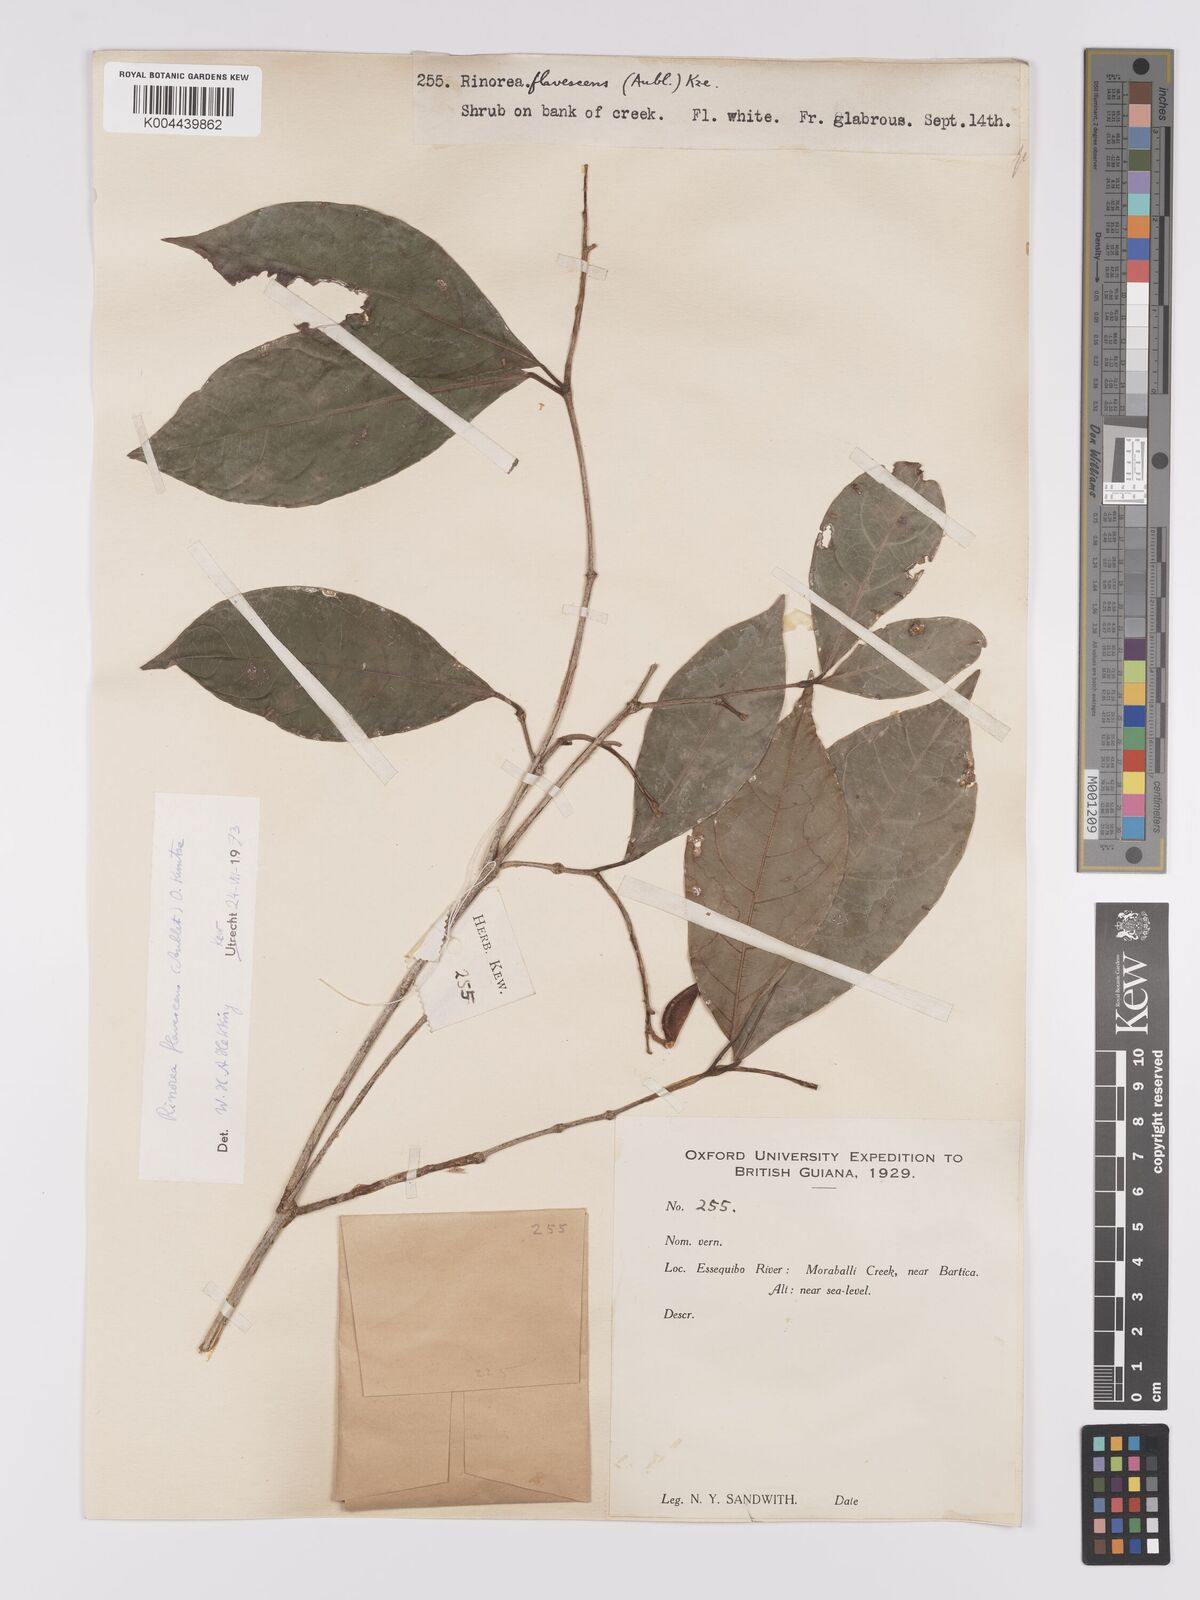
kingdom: Plantae
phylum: Tracheophyta
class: Magnoliopsida
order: Malpighiales
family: Violaceae
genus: Rinorea
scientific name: Rinorea flavescens
